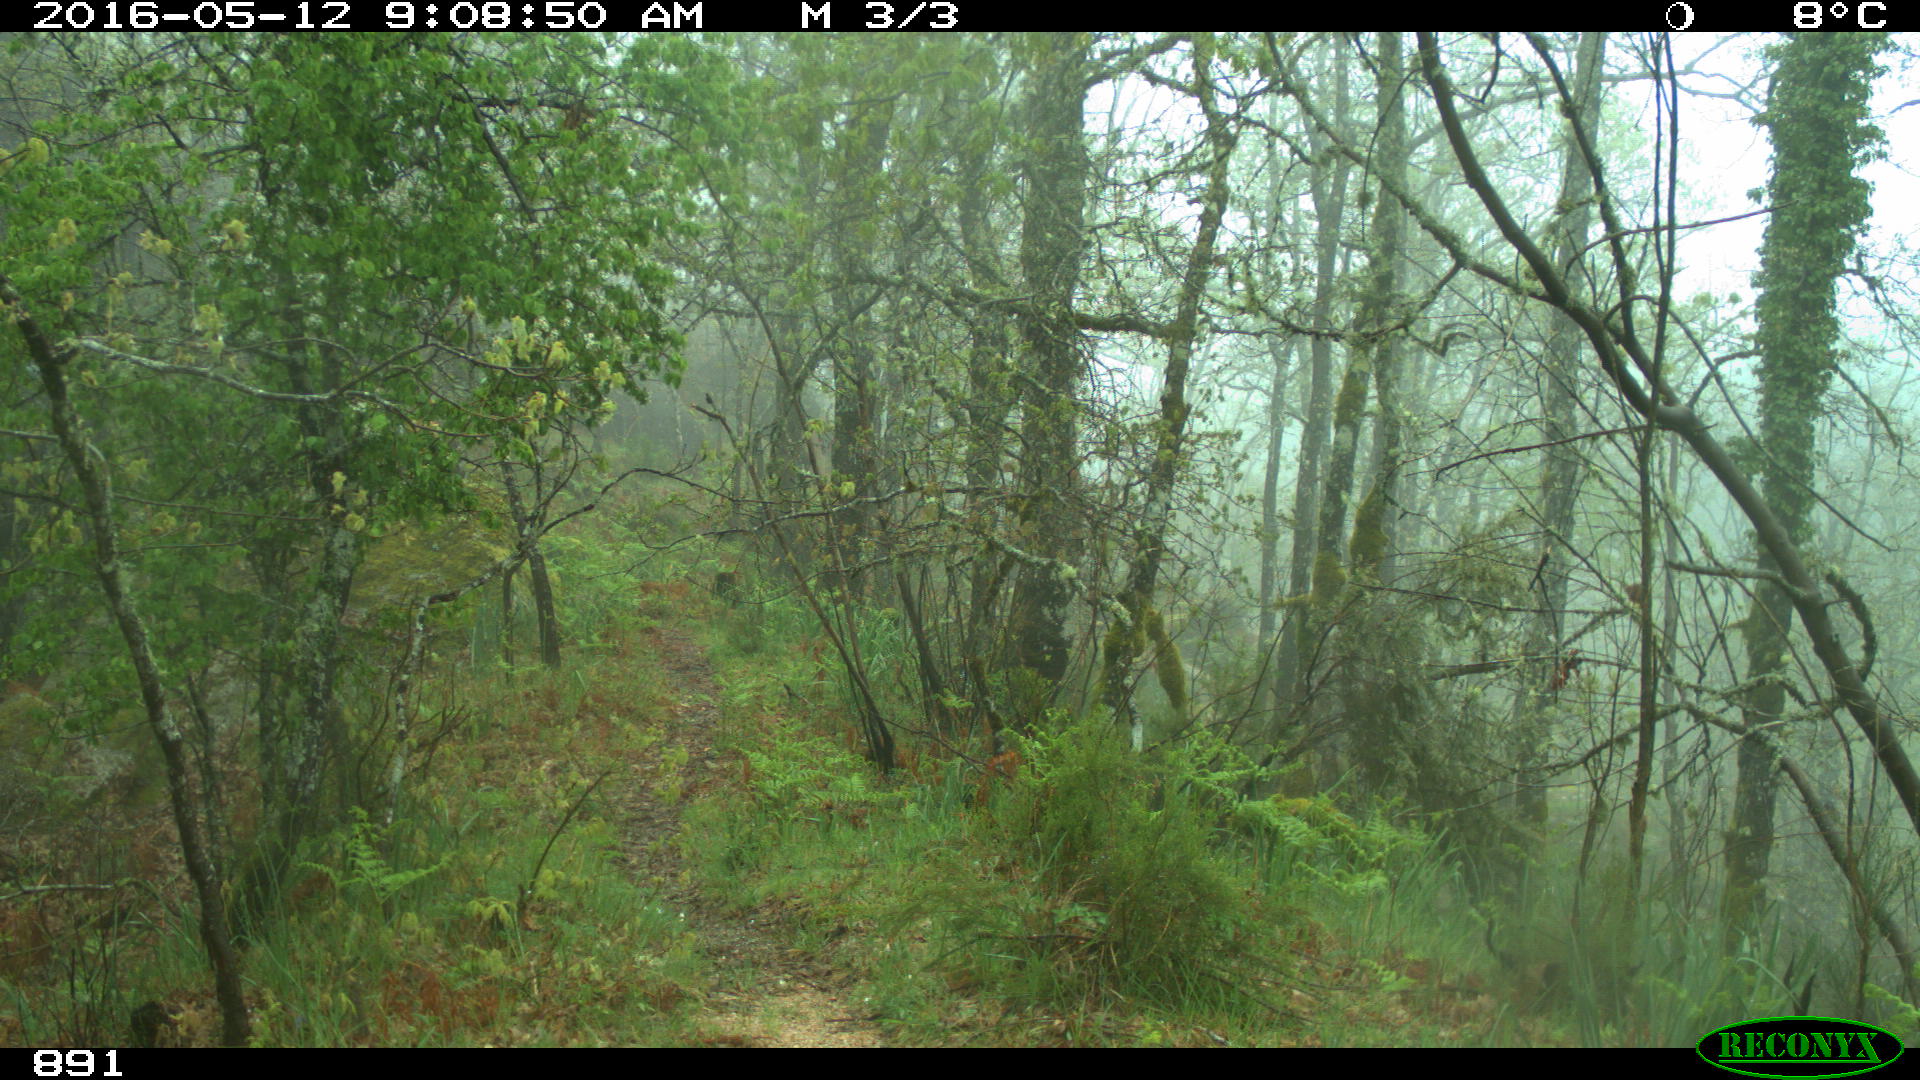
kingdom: Animalia
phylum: Chordata
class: Mammalia
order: Perissodactyla
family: Equidae
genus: Equus
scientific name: Equus caballus
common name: Horse
